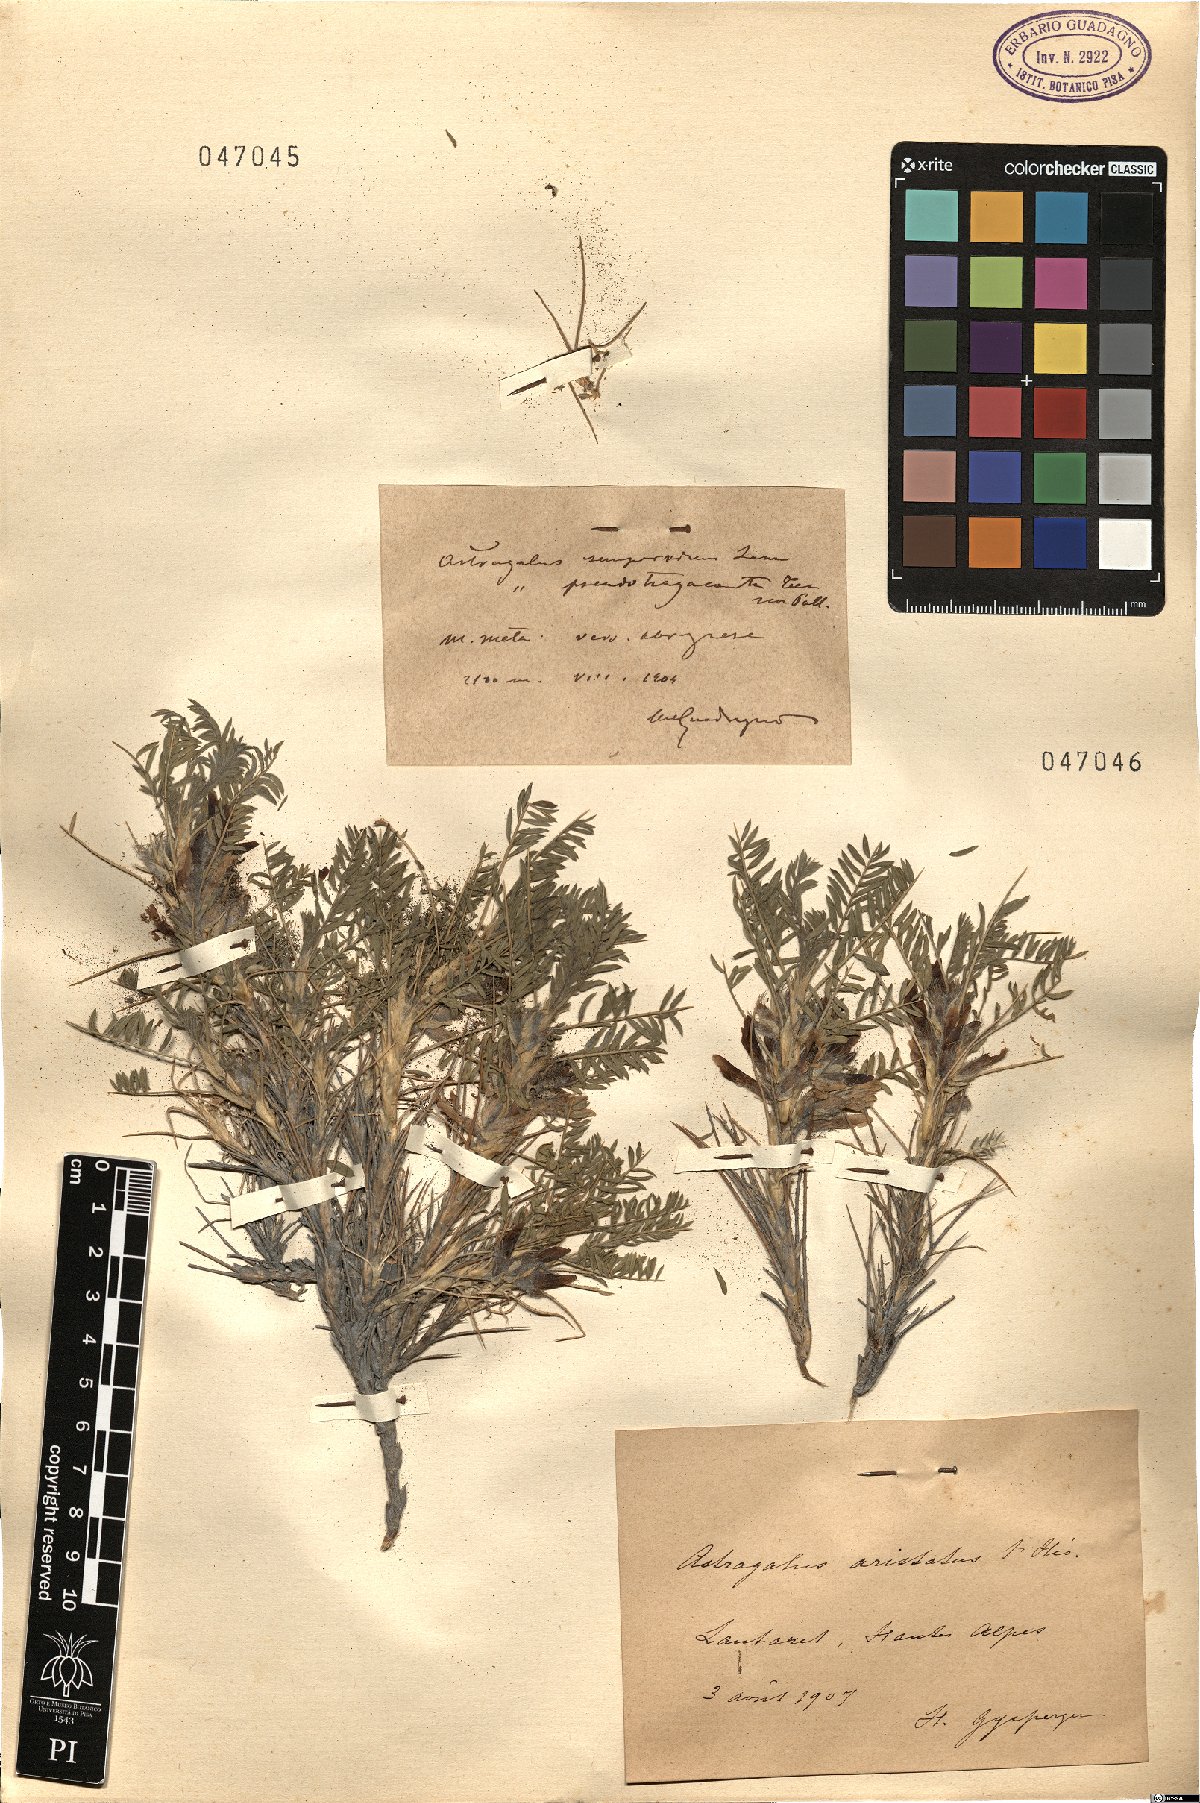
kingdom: Plantae
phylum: Tracheophyta
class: Magnoliopsida
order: Fabales
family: Fabaceae
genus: Astragalus
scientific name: Astragalus sempervirens
